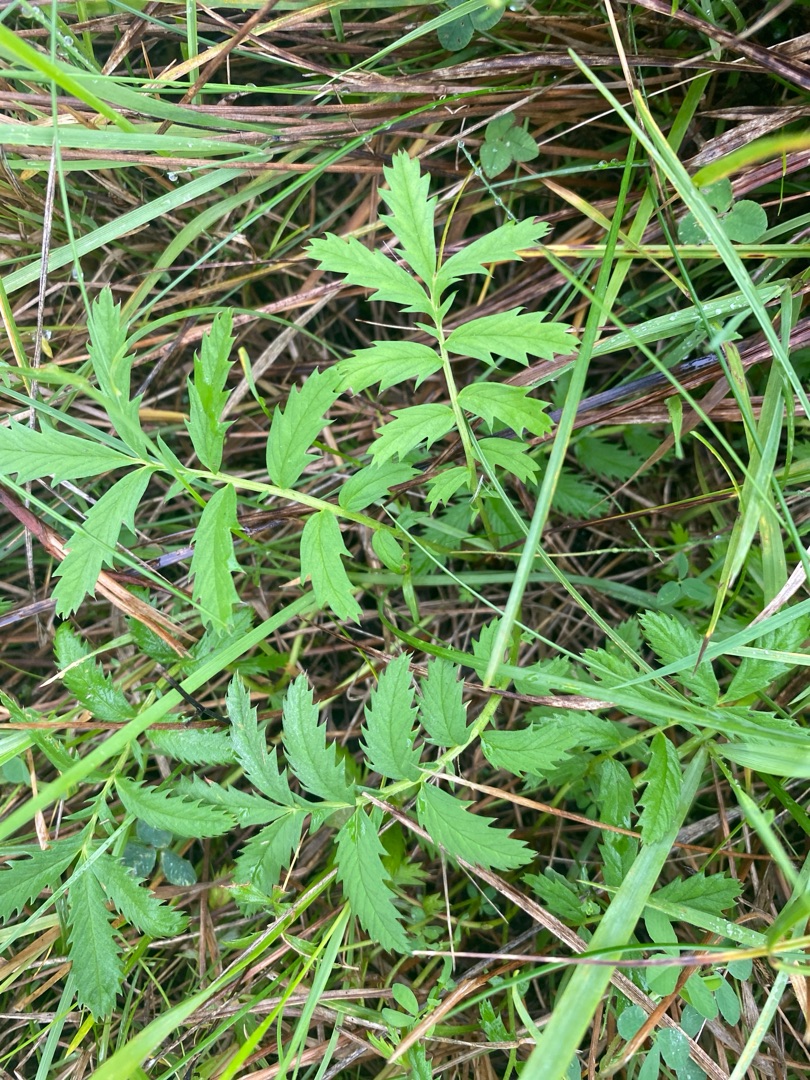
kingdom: Plantae
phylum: Tracheophyta
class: Magnoliopsida
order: Rosales
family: Rosaceae
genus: Argentina
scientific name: Argentina anserina
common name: Gåsepotentil
